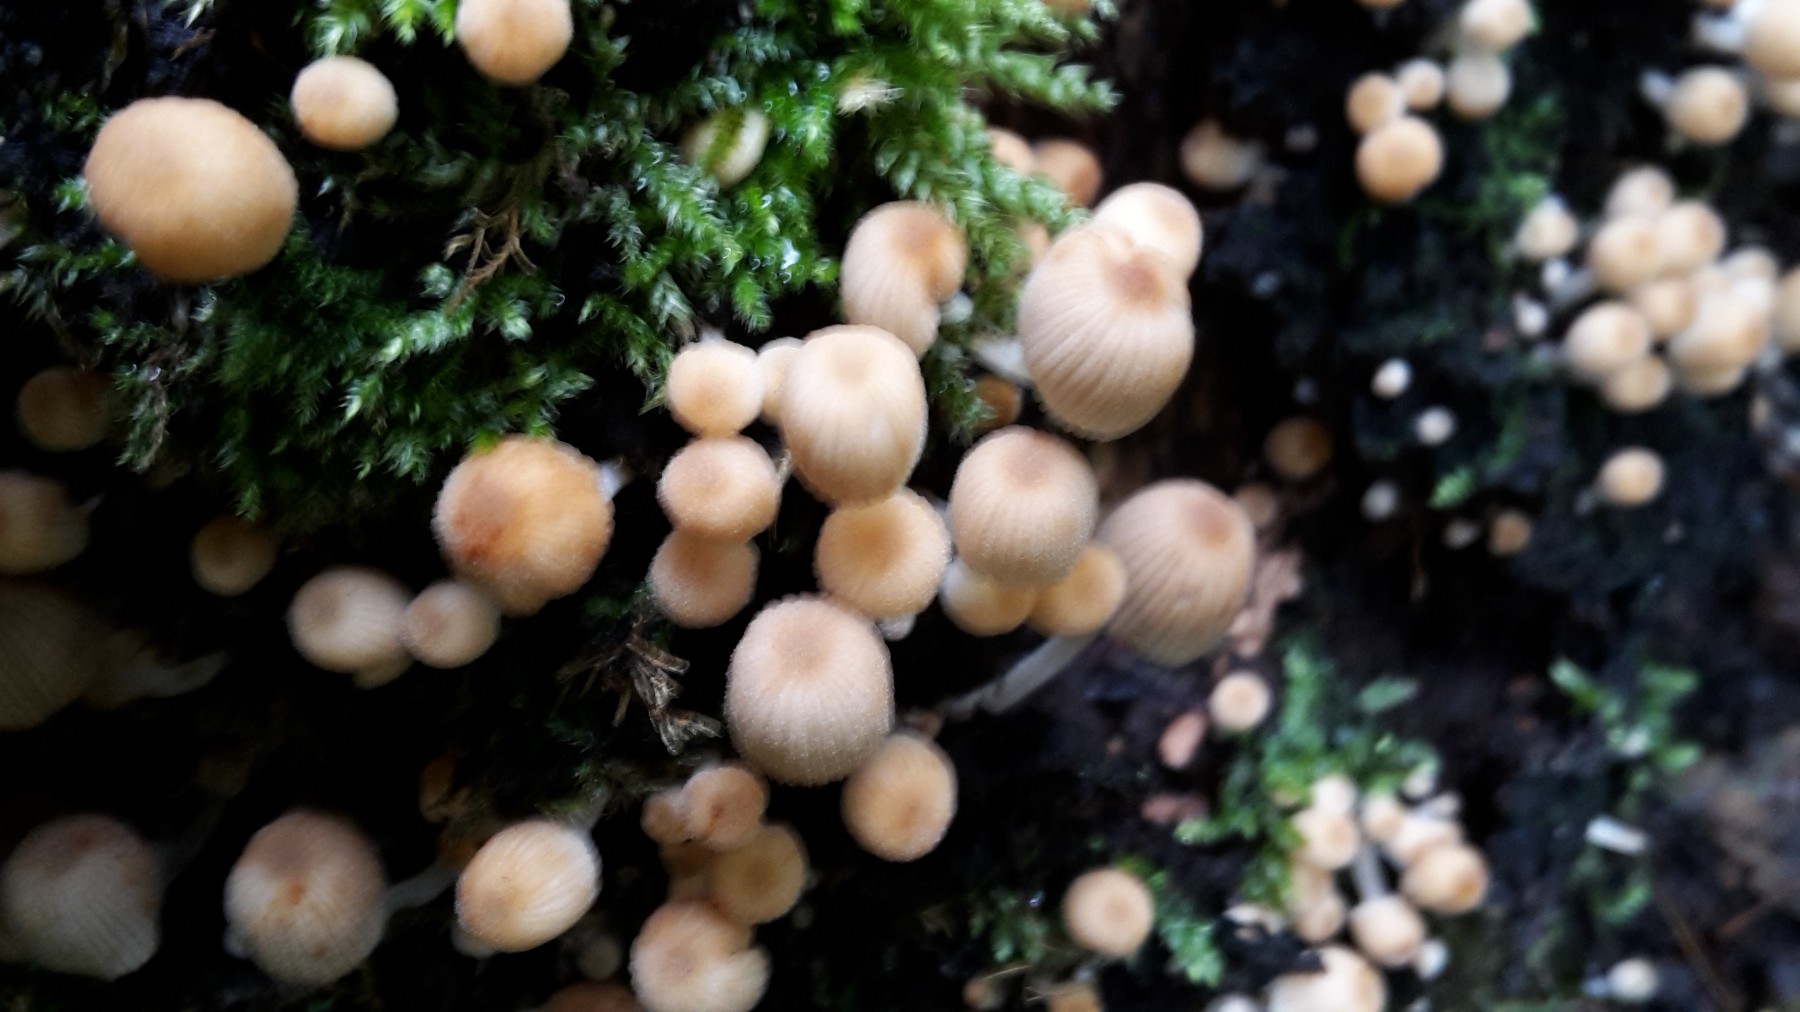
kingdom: Fungi
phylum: Basidiomycota
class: Agaricomycetes
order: Agaricales
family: Psathyrellaceae
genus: Coprinellus
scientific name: Coprinellus disseminatus
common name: bredsået blækhat
